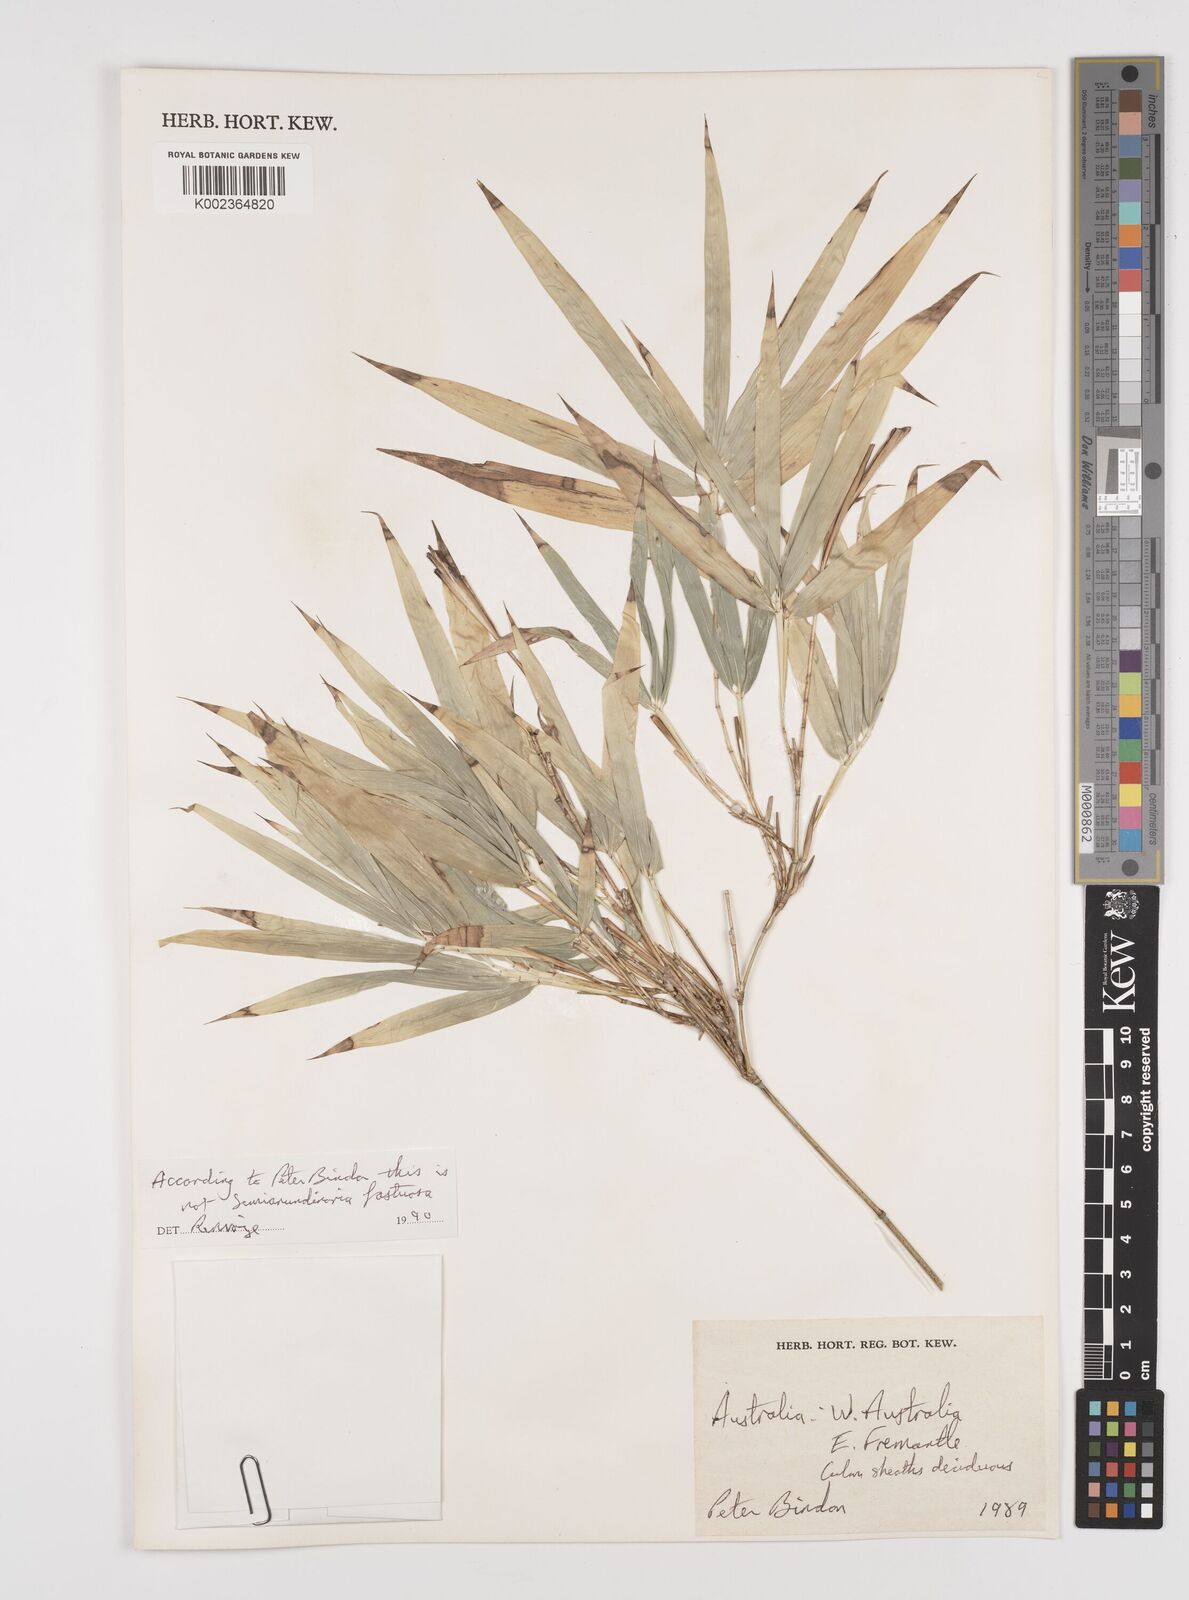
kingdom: Plantae
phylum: Tracheophyta
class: Liliopsida
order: Poales
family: Poaceae
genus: Semiarundinaria
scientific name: Semiarundinaria fastuosa
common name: Narihira bamboo
